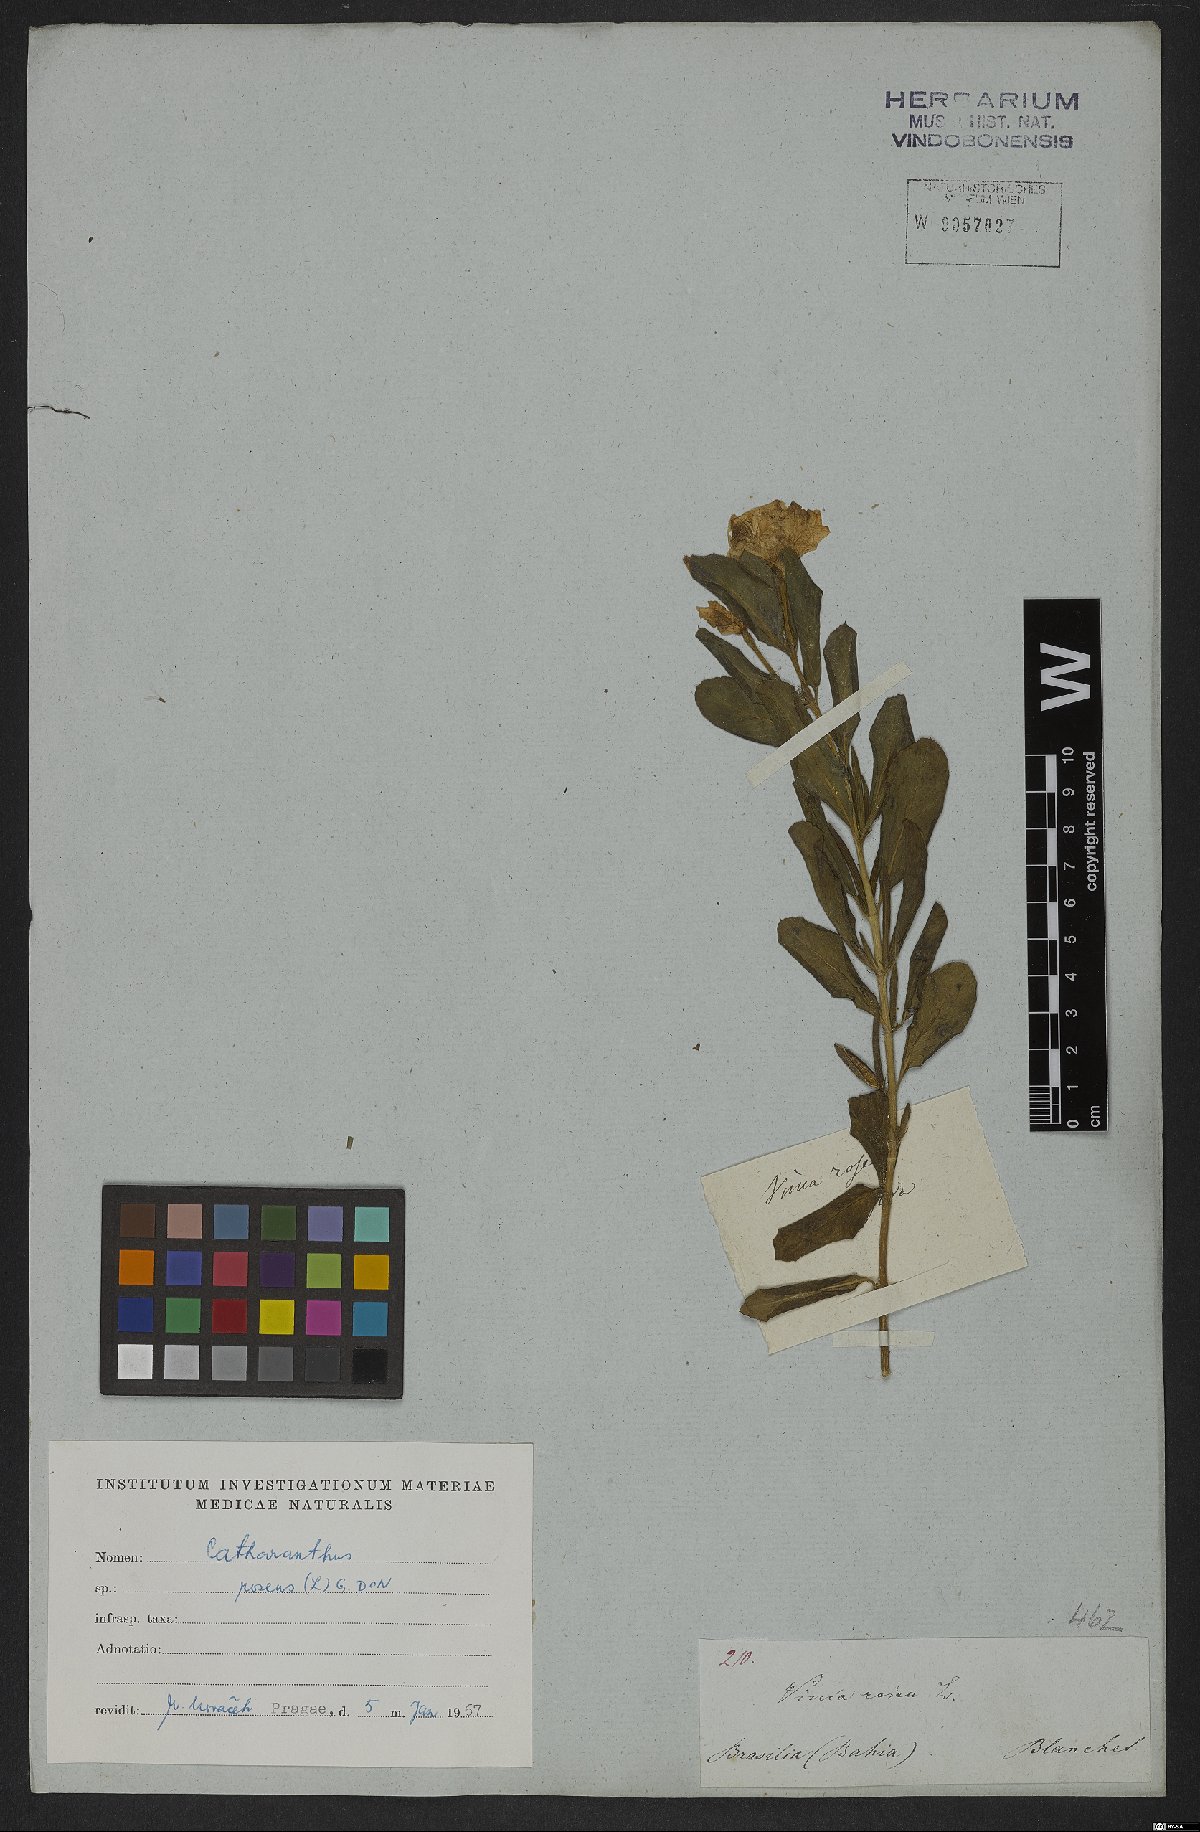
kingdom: Plantae
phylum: Tracheophyta
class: Magnoliopsida
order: Gentianales
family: Apocynaceae
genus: Catharanthus
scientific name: Catharanthus roseus
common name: Madagascar periwinkle
